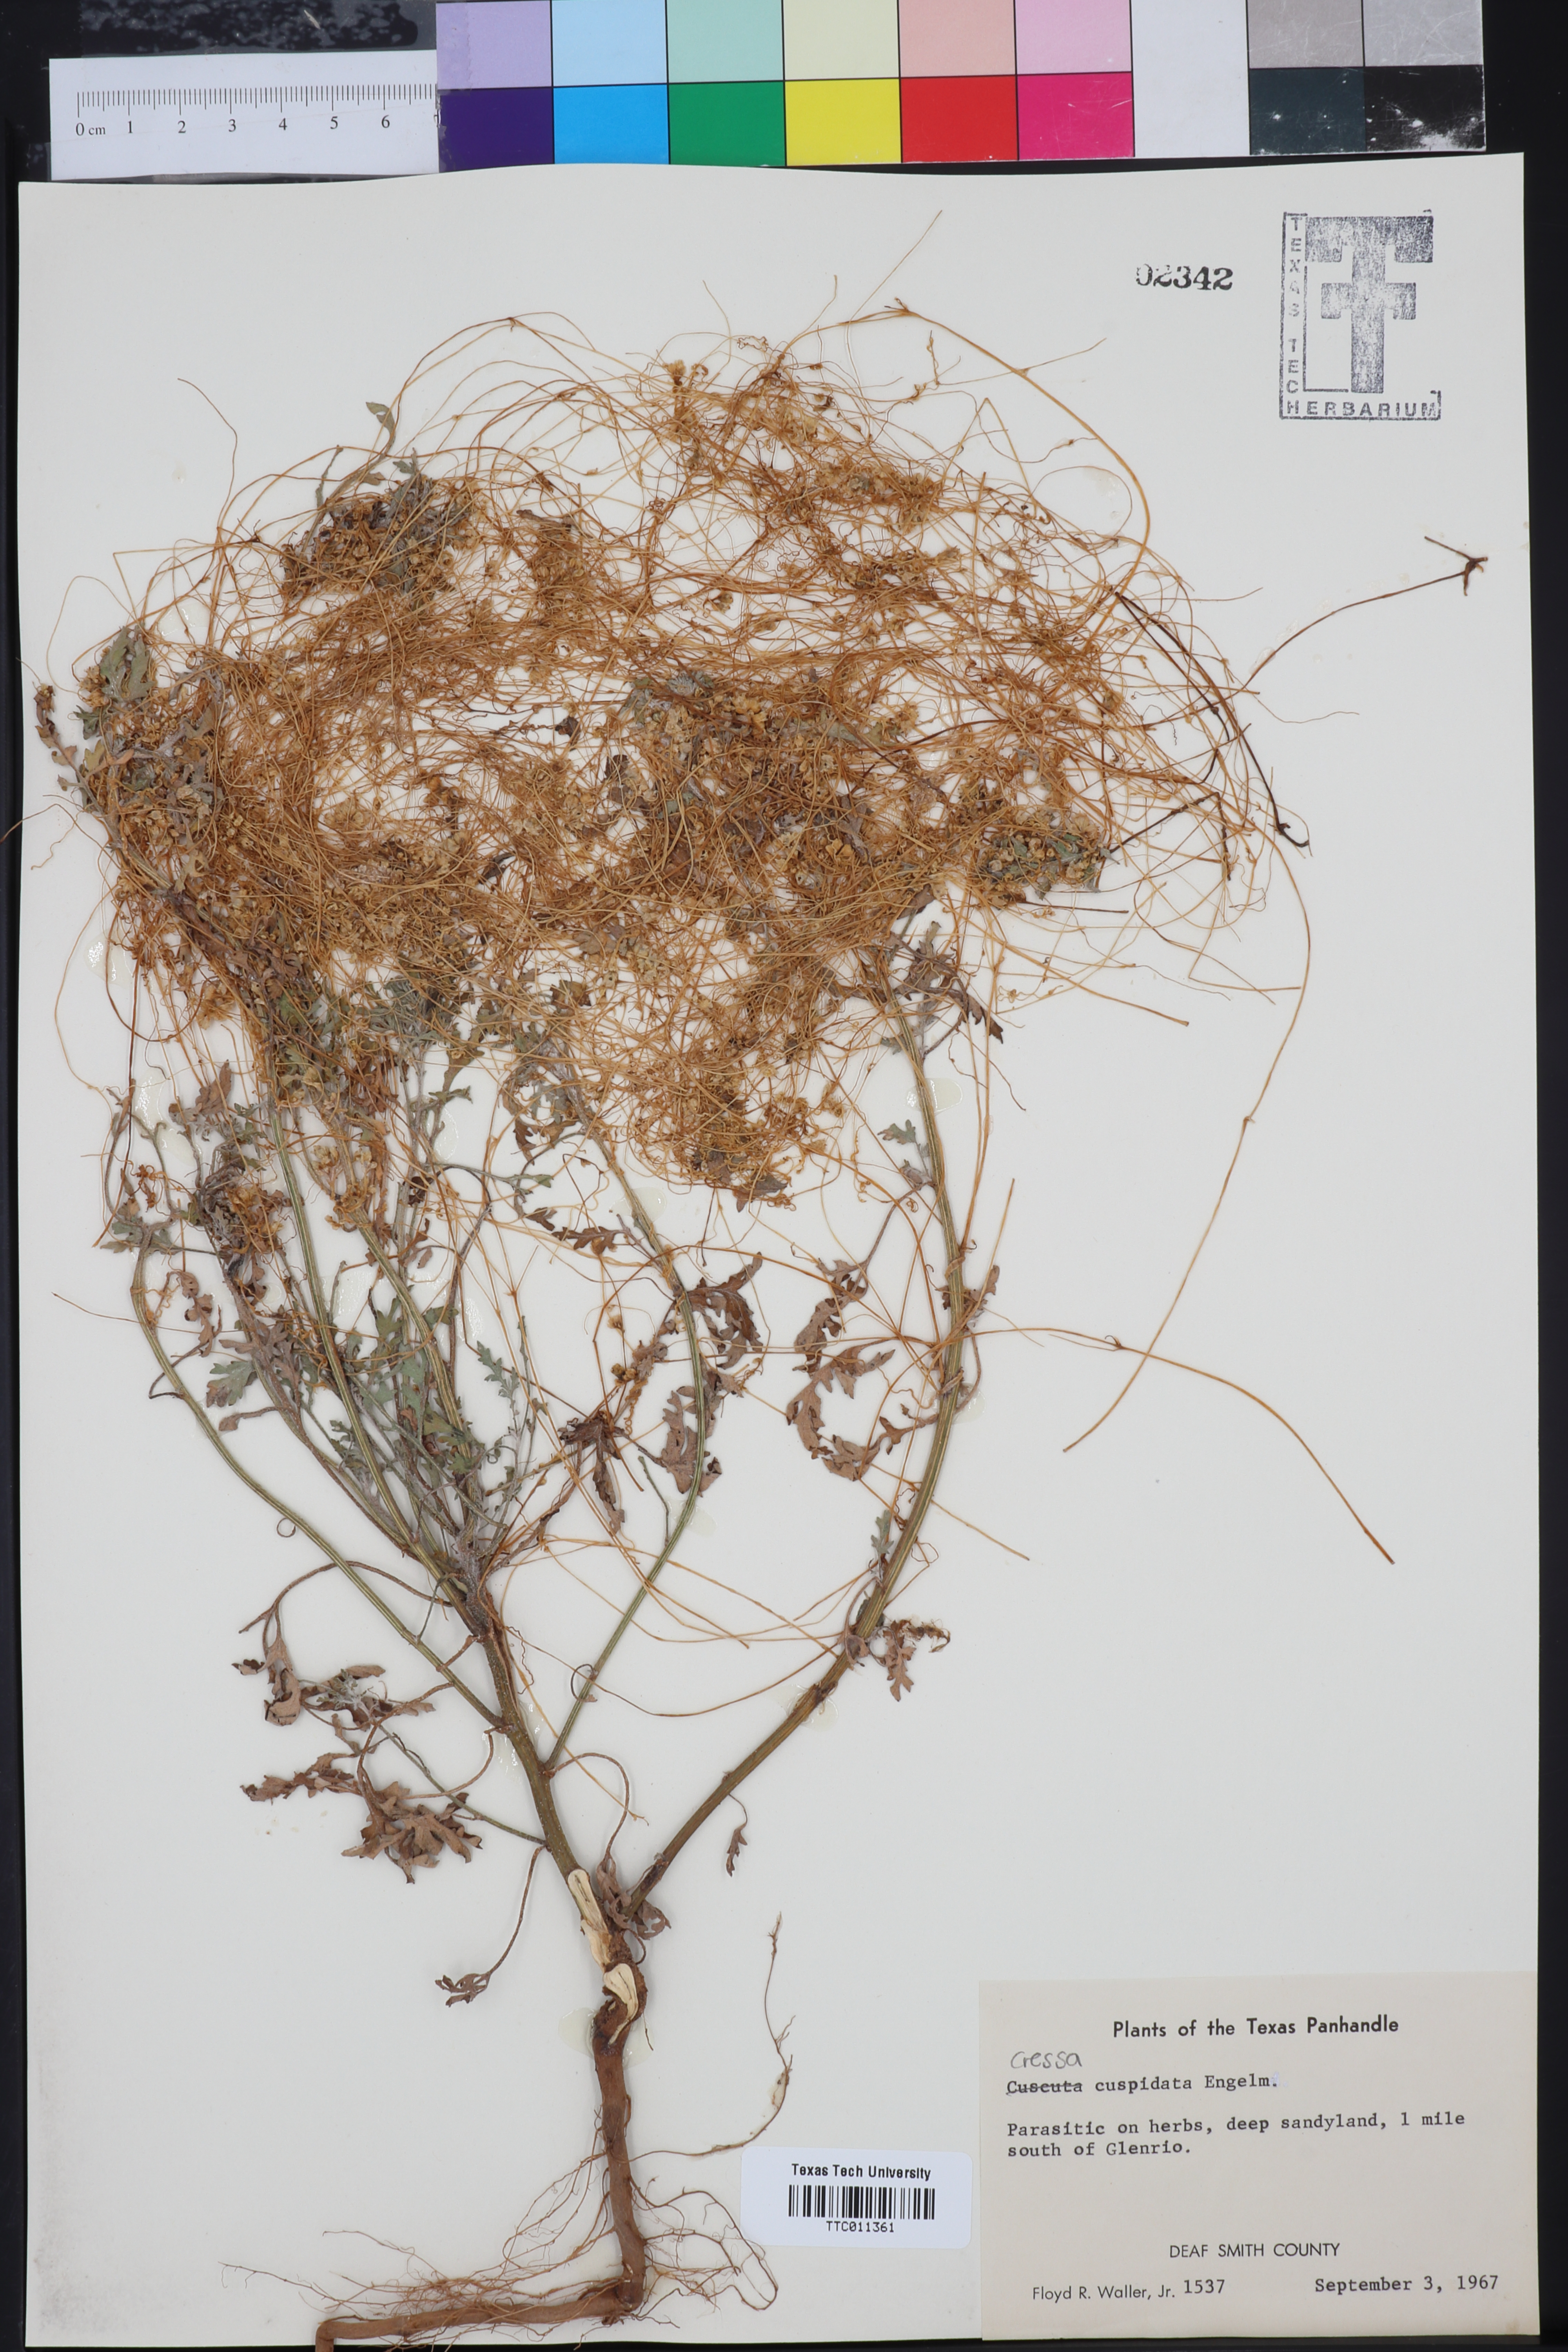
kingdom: Plantae
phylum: Tracheophyta
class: Magnoliopsida
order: Solanales
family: Convolvulaceae
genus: Cressa
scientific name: Cressa
